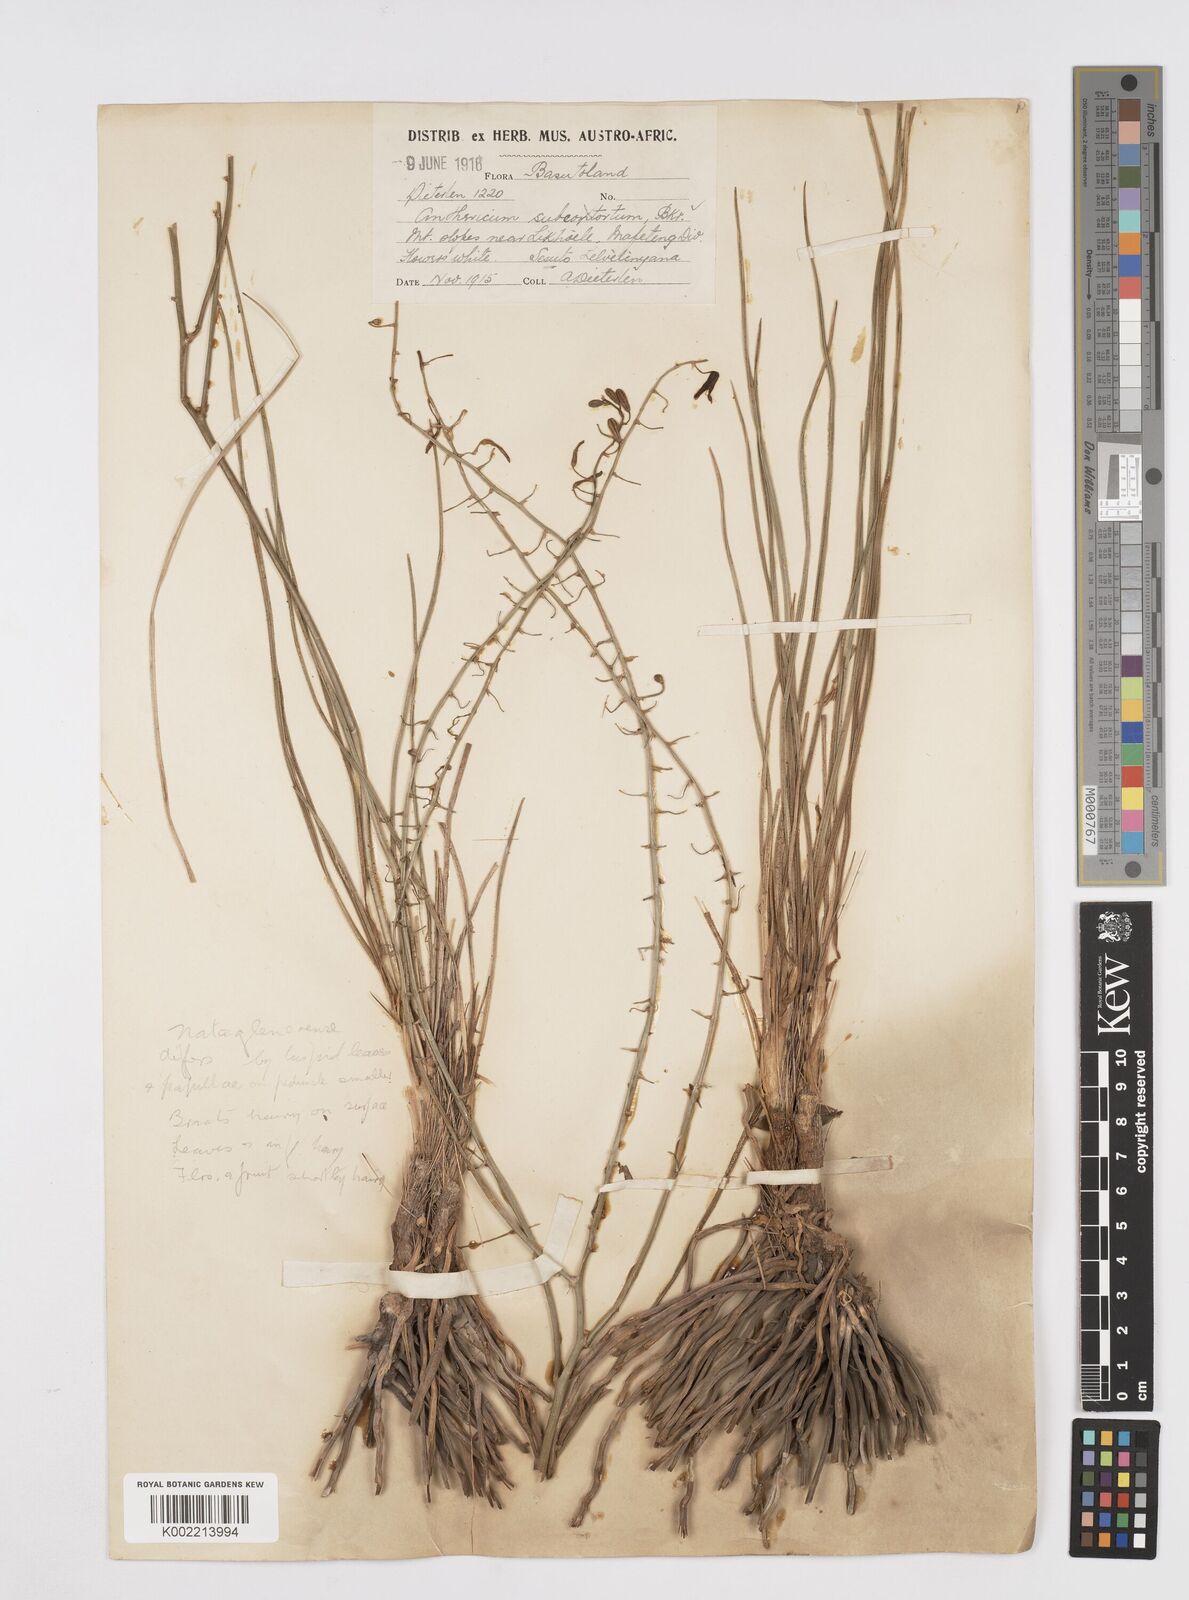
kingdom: Plantae
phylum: Tracheophyta
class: Liliopsida
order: Asparagales
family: Asphodelaceae
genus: Trachyandra
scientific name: Trachyandra asperata
